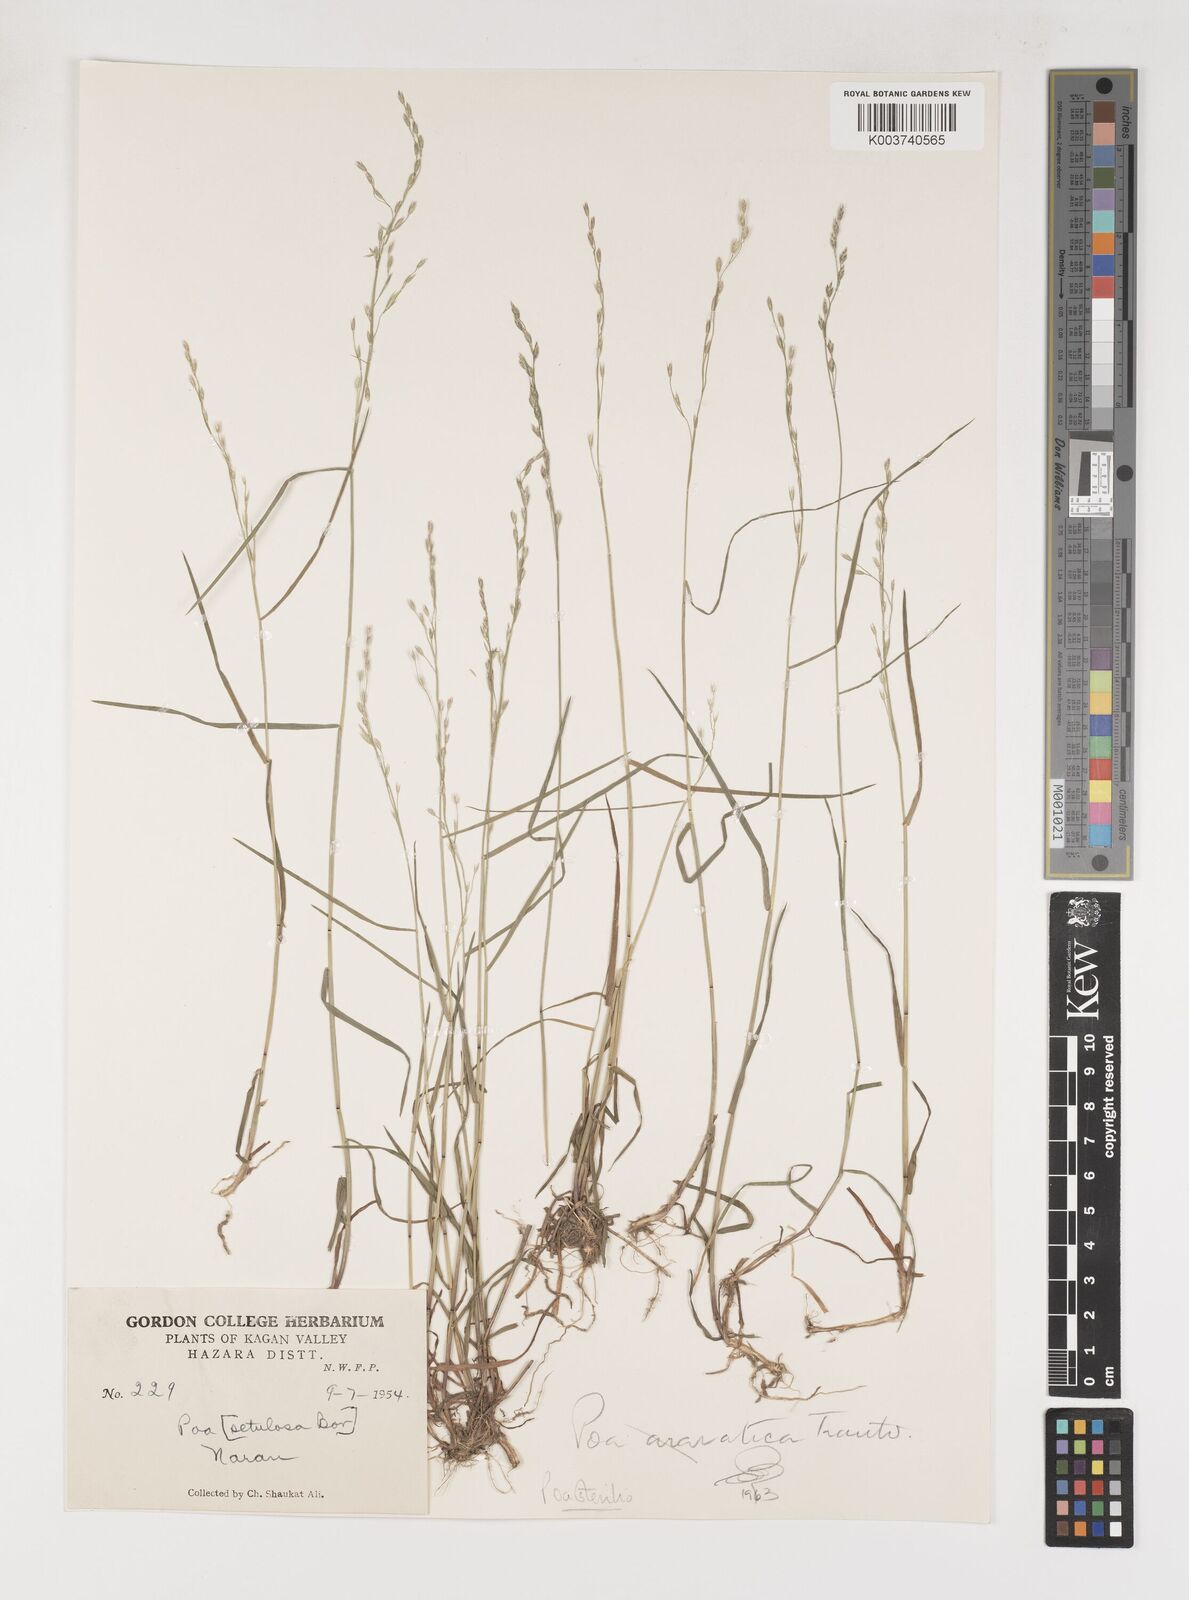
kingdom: Plantae
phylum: Tracheophyta
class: Liliopsida
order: Poales
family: Poaceae
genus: Poa
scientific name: Poa sterilis
